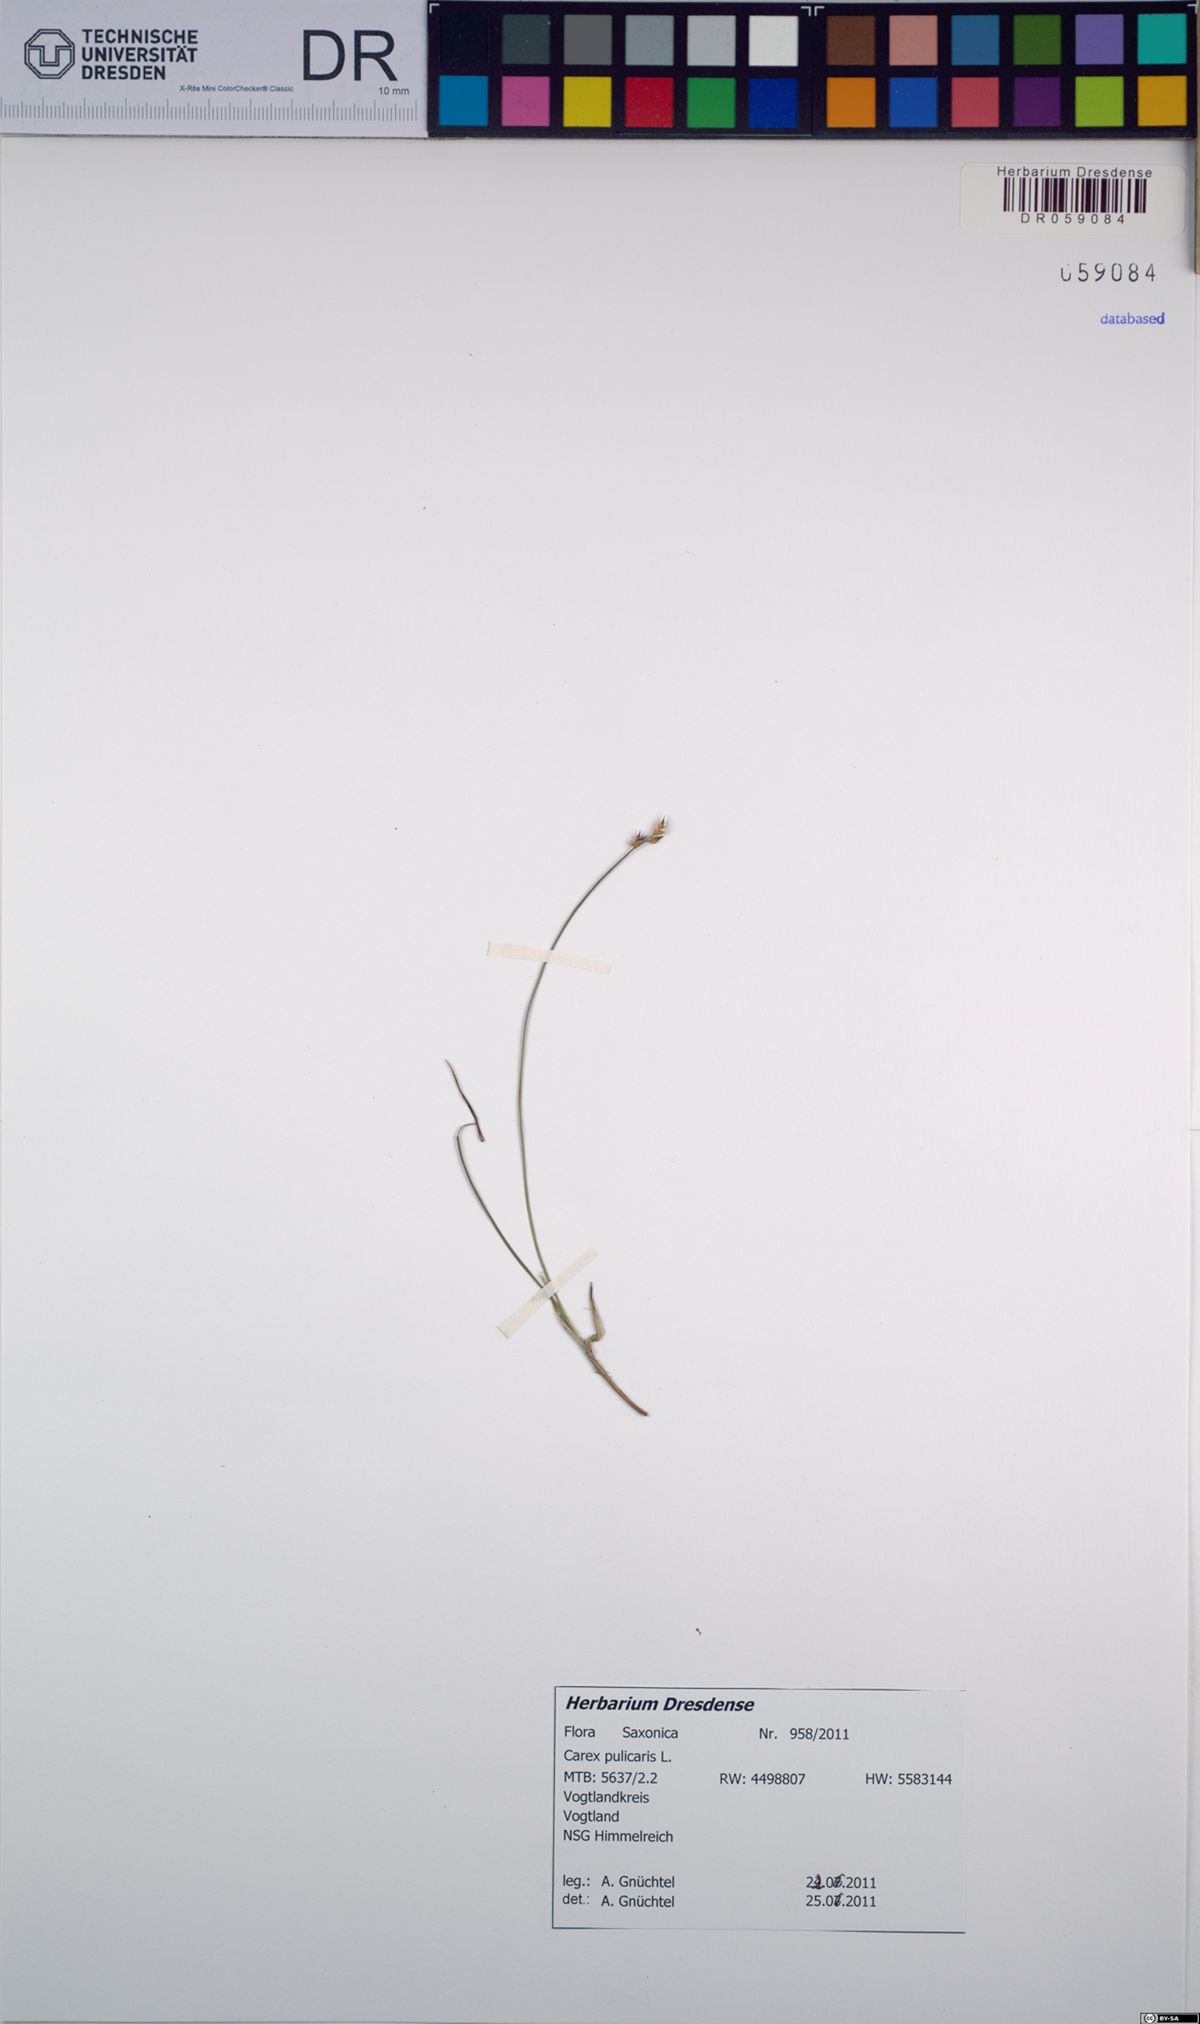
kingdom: Plantae
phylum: Tracheophyta
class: Liliopsida
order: Poales
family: Cyperaceae
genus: Carex
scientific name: Carex pulicaris
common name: Flea sedge
